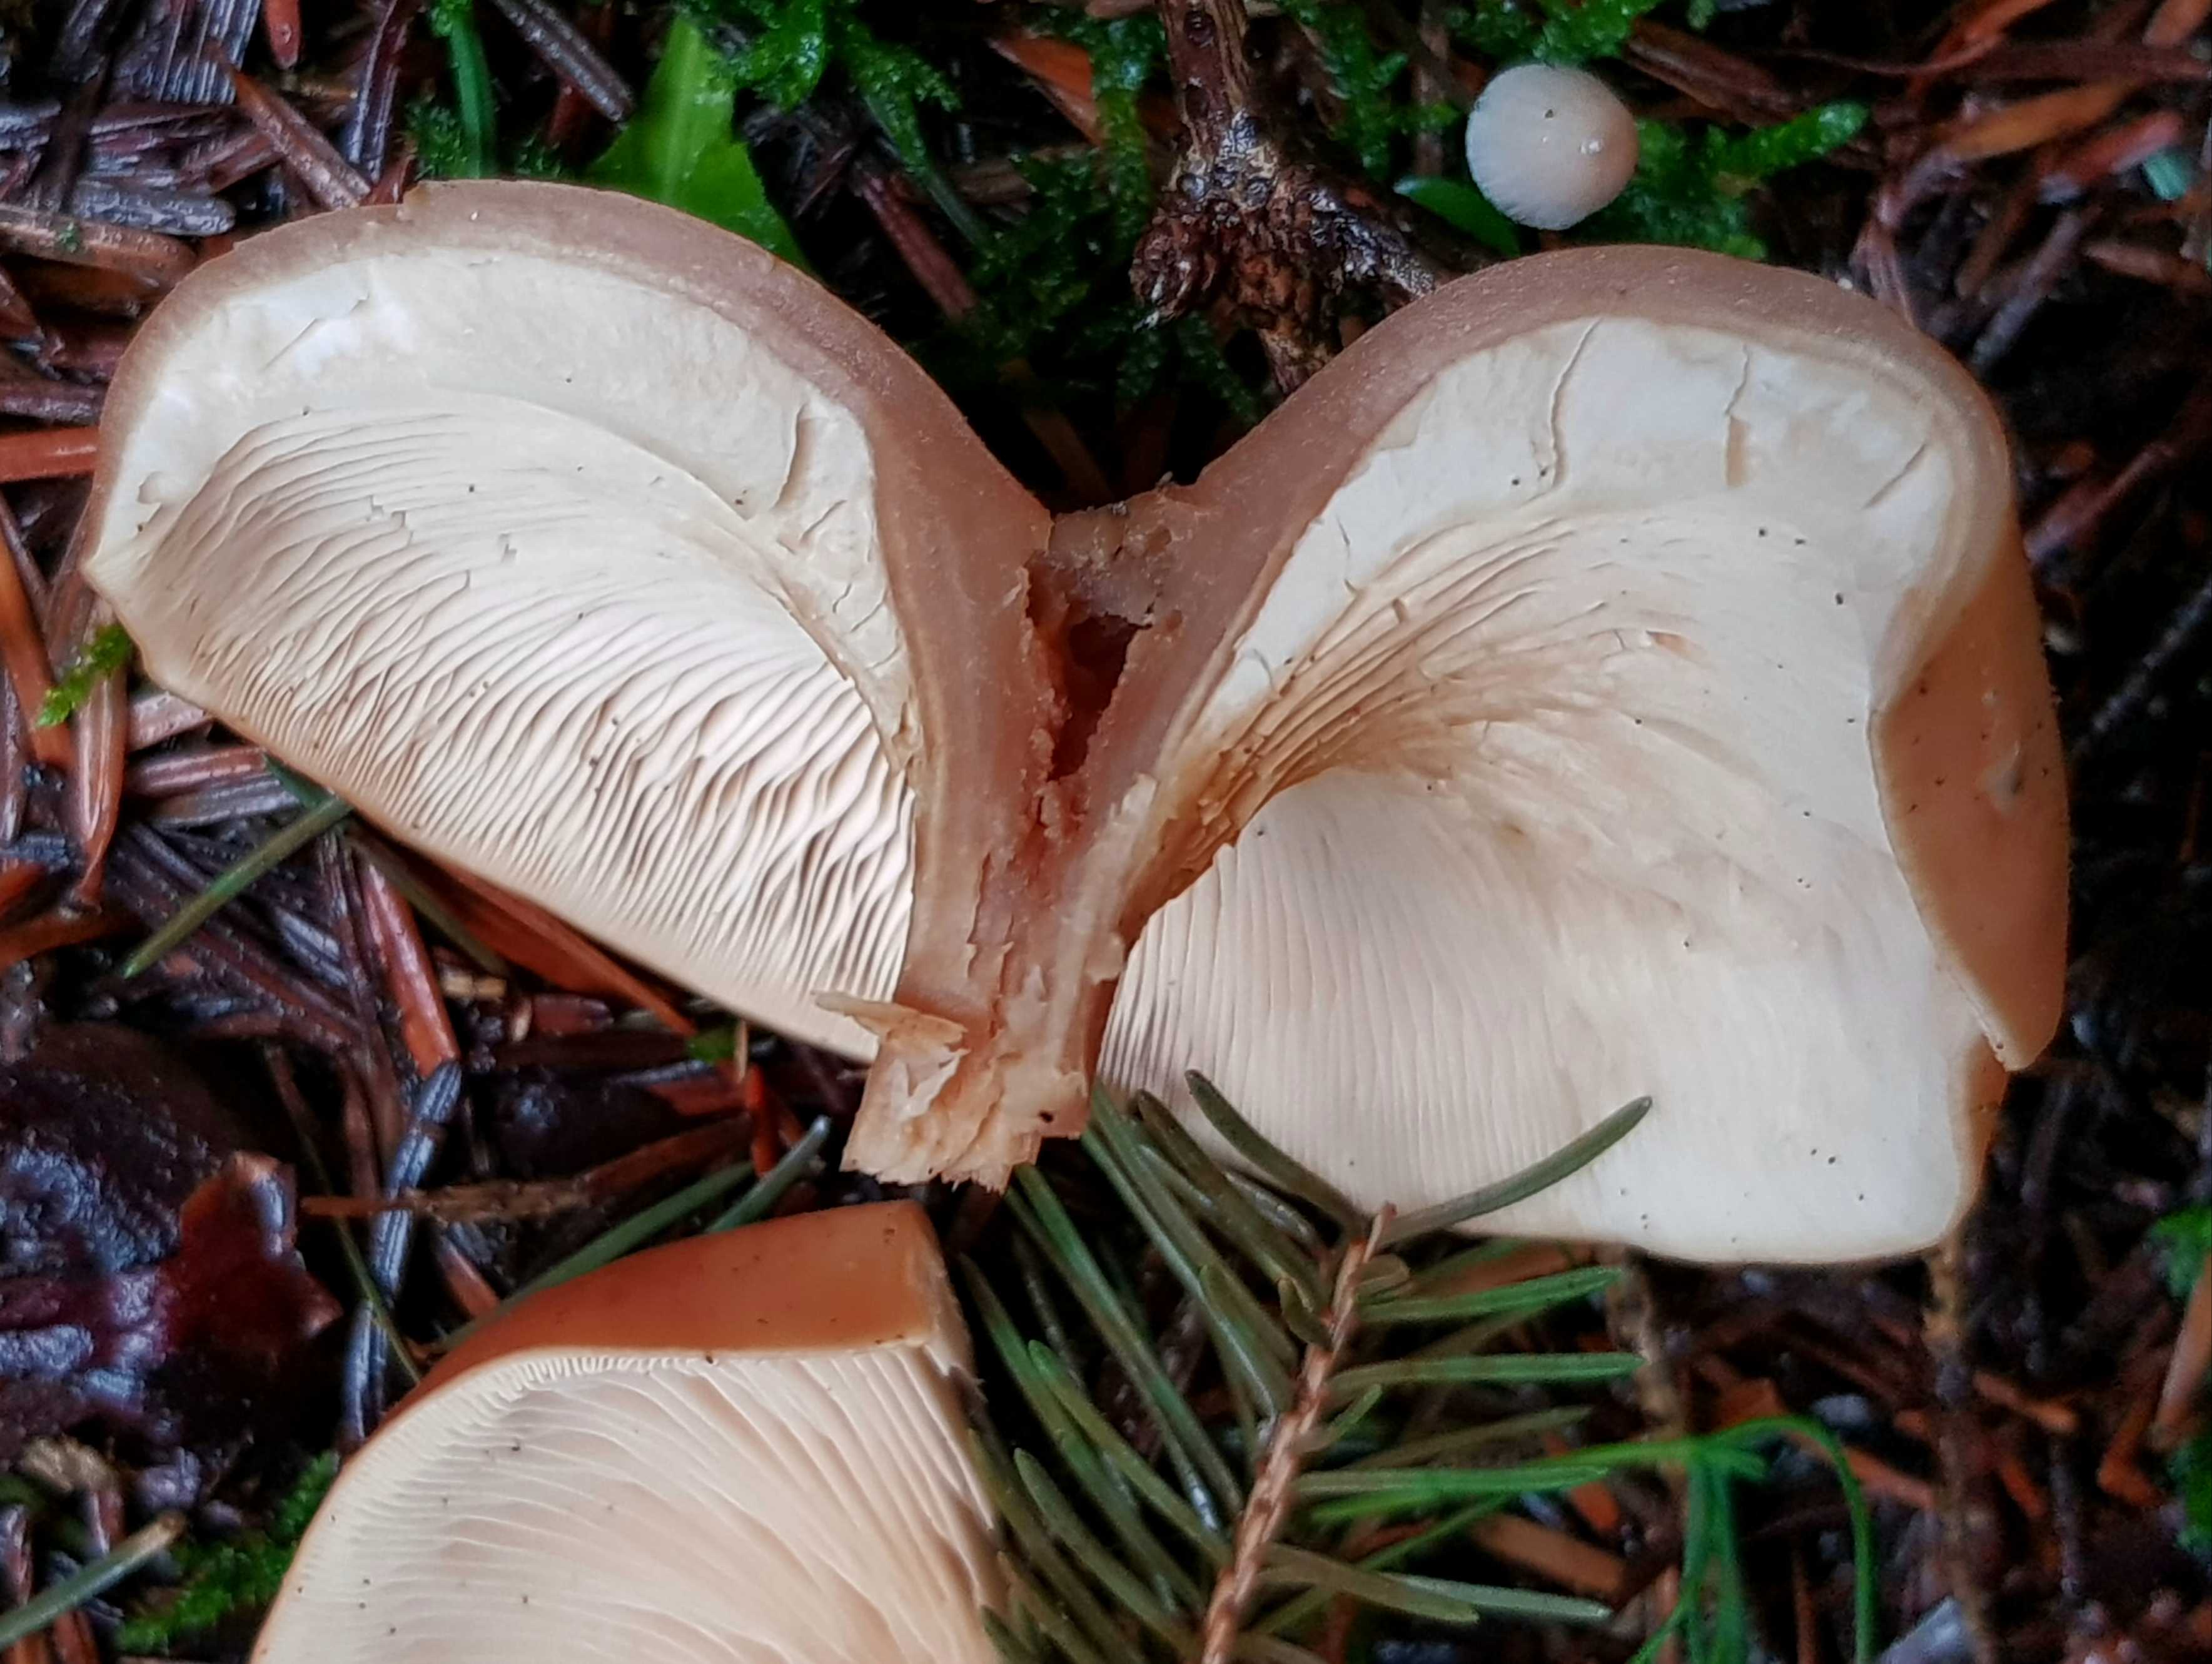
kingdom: Fungi
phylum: Basidiomycota
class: Agaricomycetes
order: Agaricales
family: Tricholomataceae
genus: Paralepista
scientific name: Paralepista flaccida
